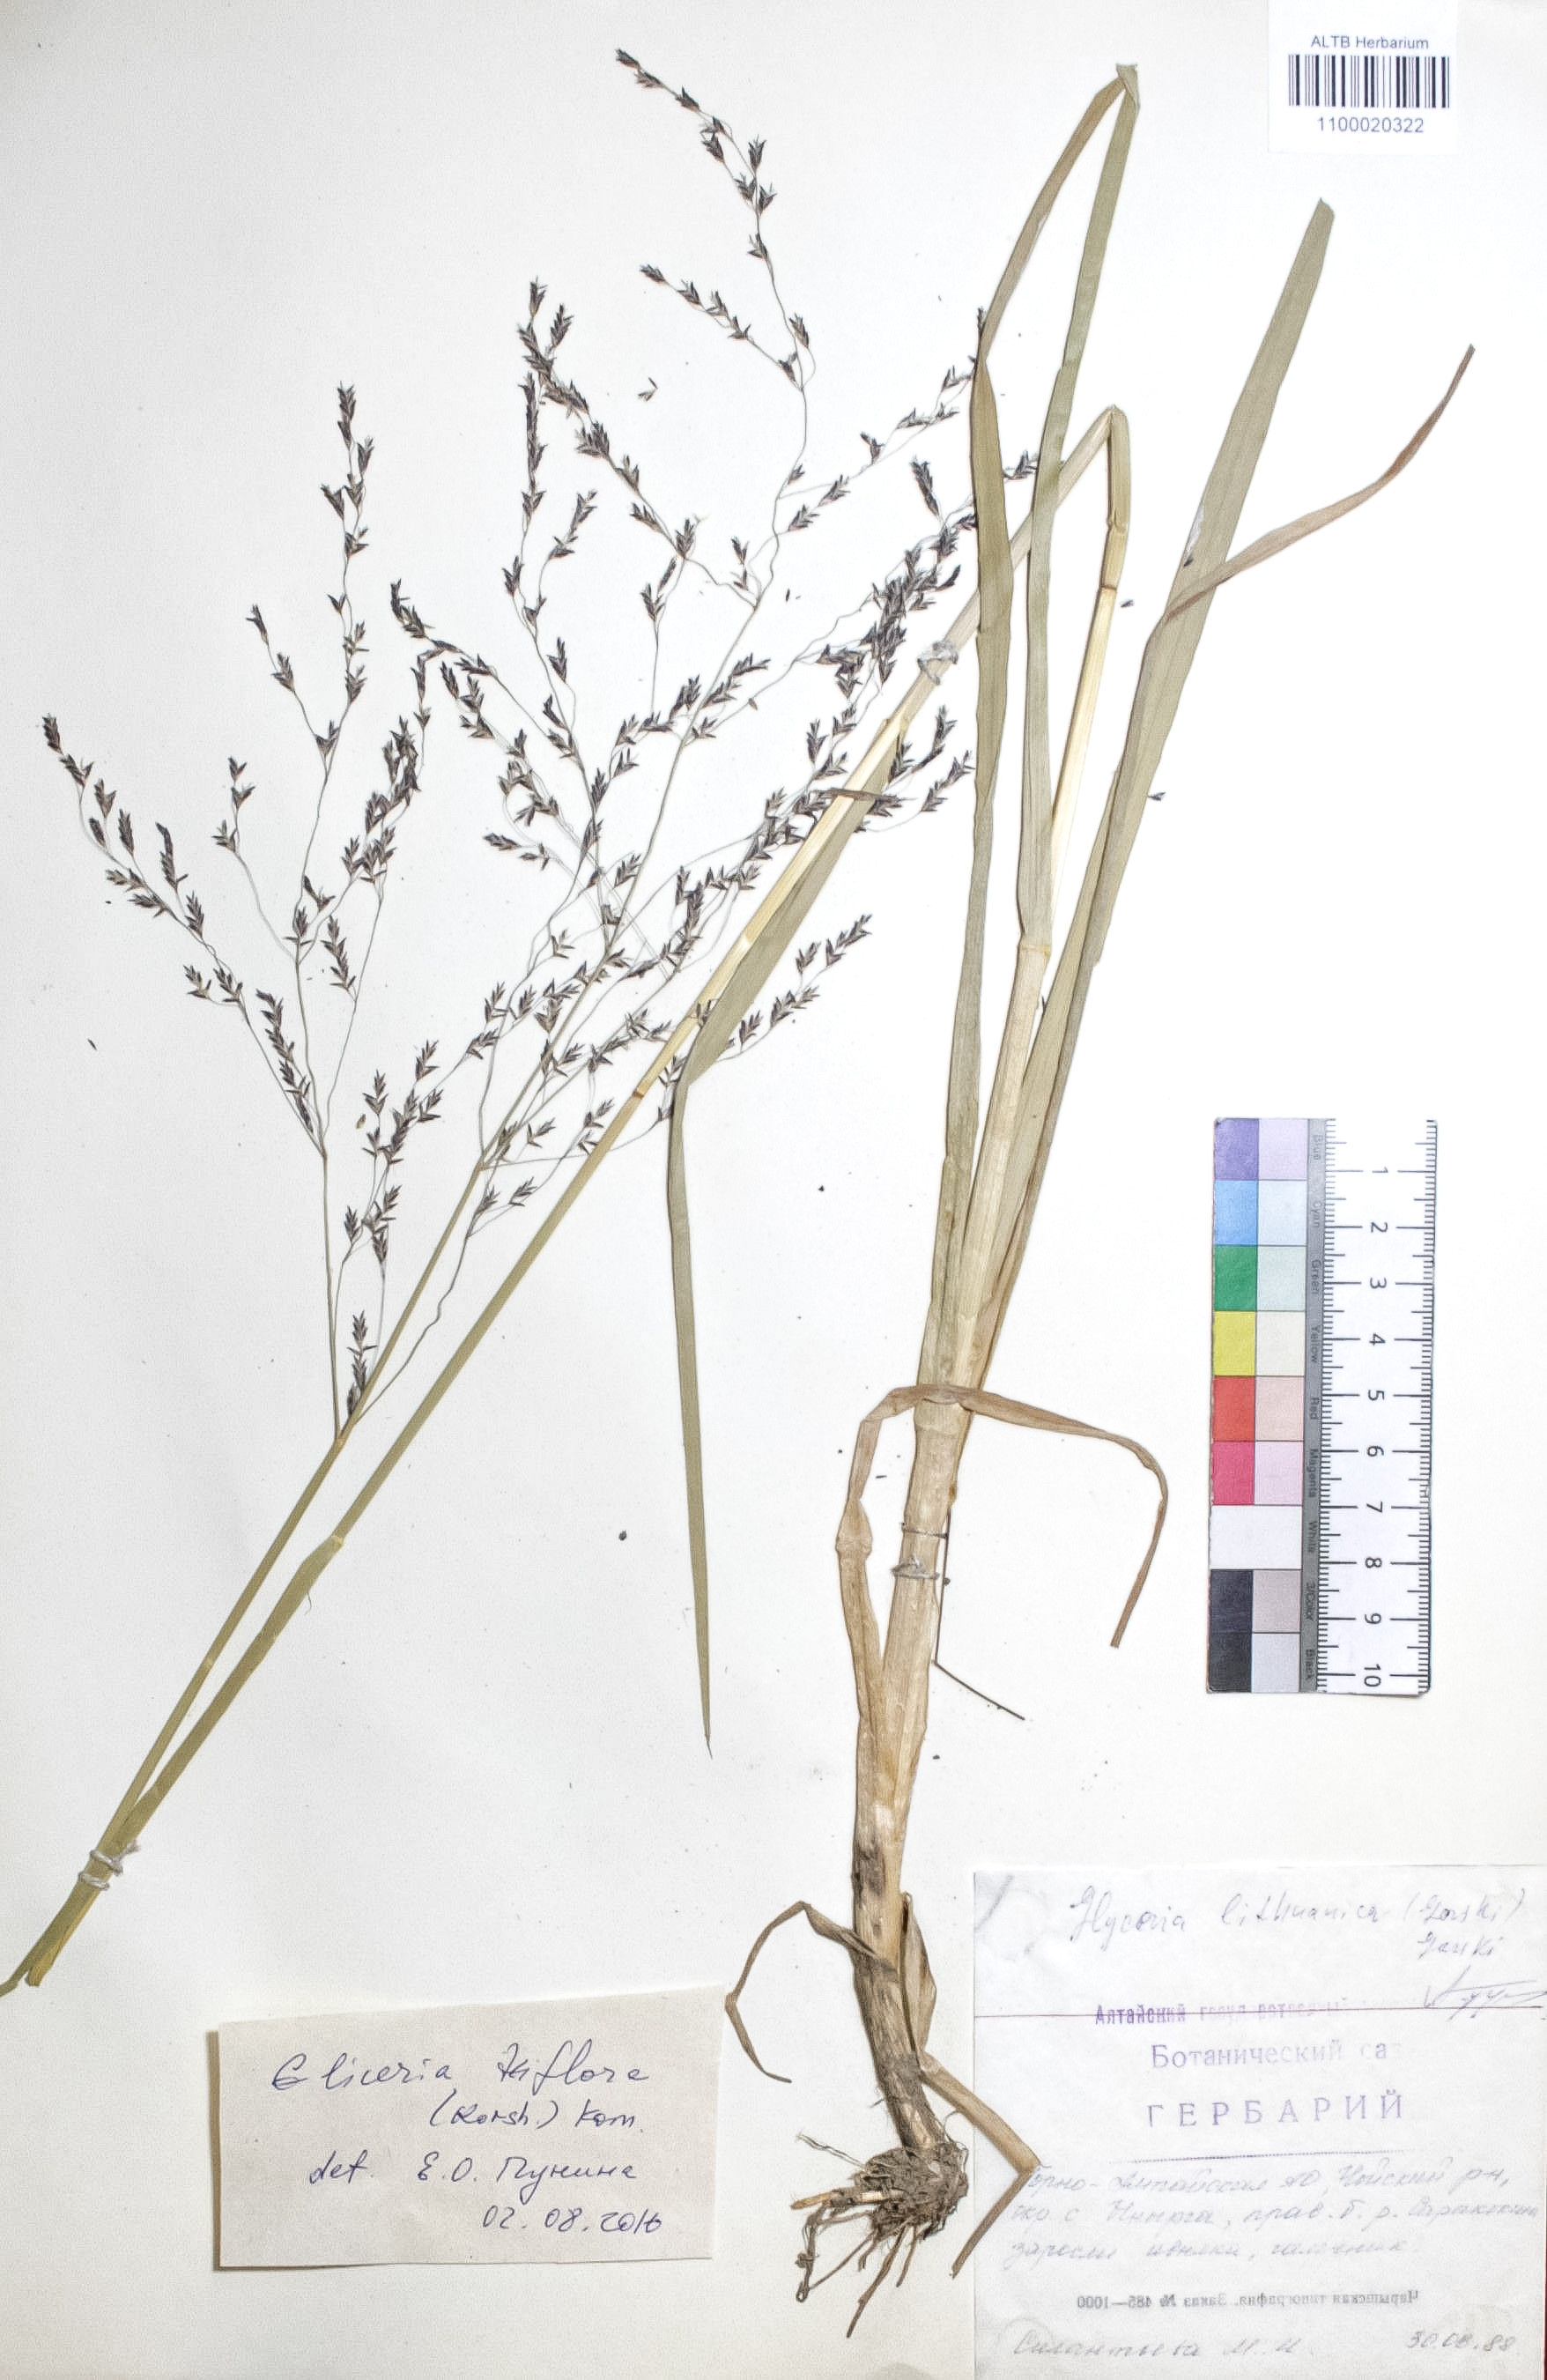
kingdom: Plantae
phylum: Tracheophyta
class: Liliopsida
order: Poales
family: Poaceae
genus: Glyceria
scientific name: Glyceria lithuanica
